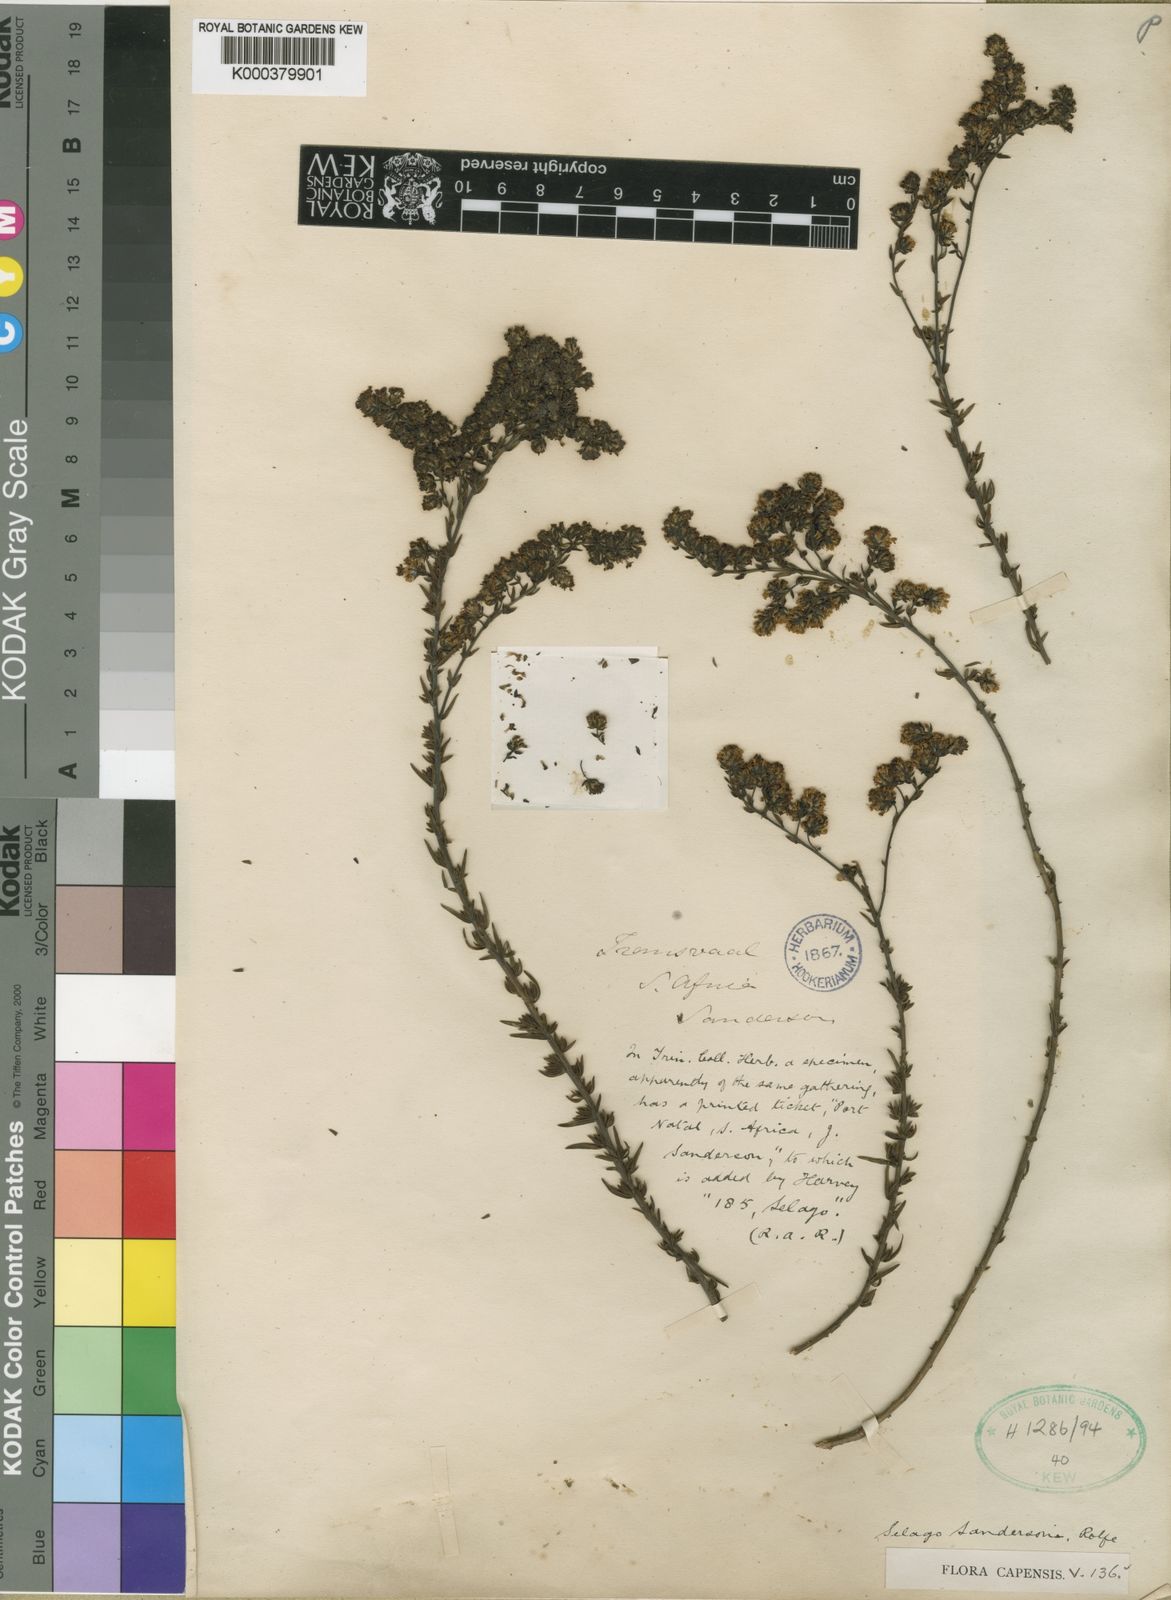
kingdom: Plantae
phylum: Tracheophyta
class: Magnoliopsida
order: Lamiales
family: Scrophulariaceae
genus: Selago
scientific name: Selago galpinii
